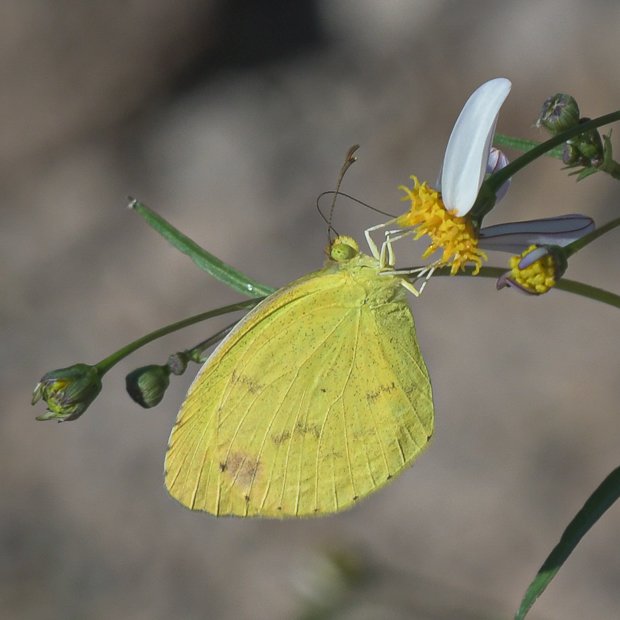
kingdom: Animalia
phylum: Arthropoda
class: Insecta
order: Lepidoptera
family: Pieridae
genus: Pyrisitia
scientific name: Pyrisitia nise
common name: Mimosa Yellow
